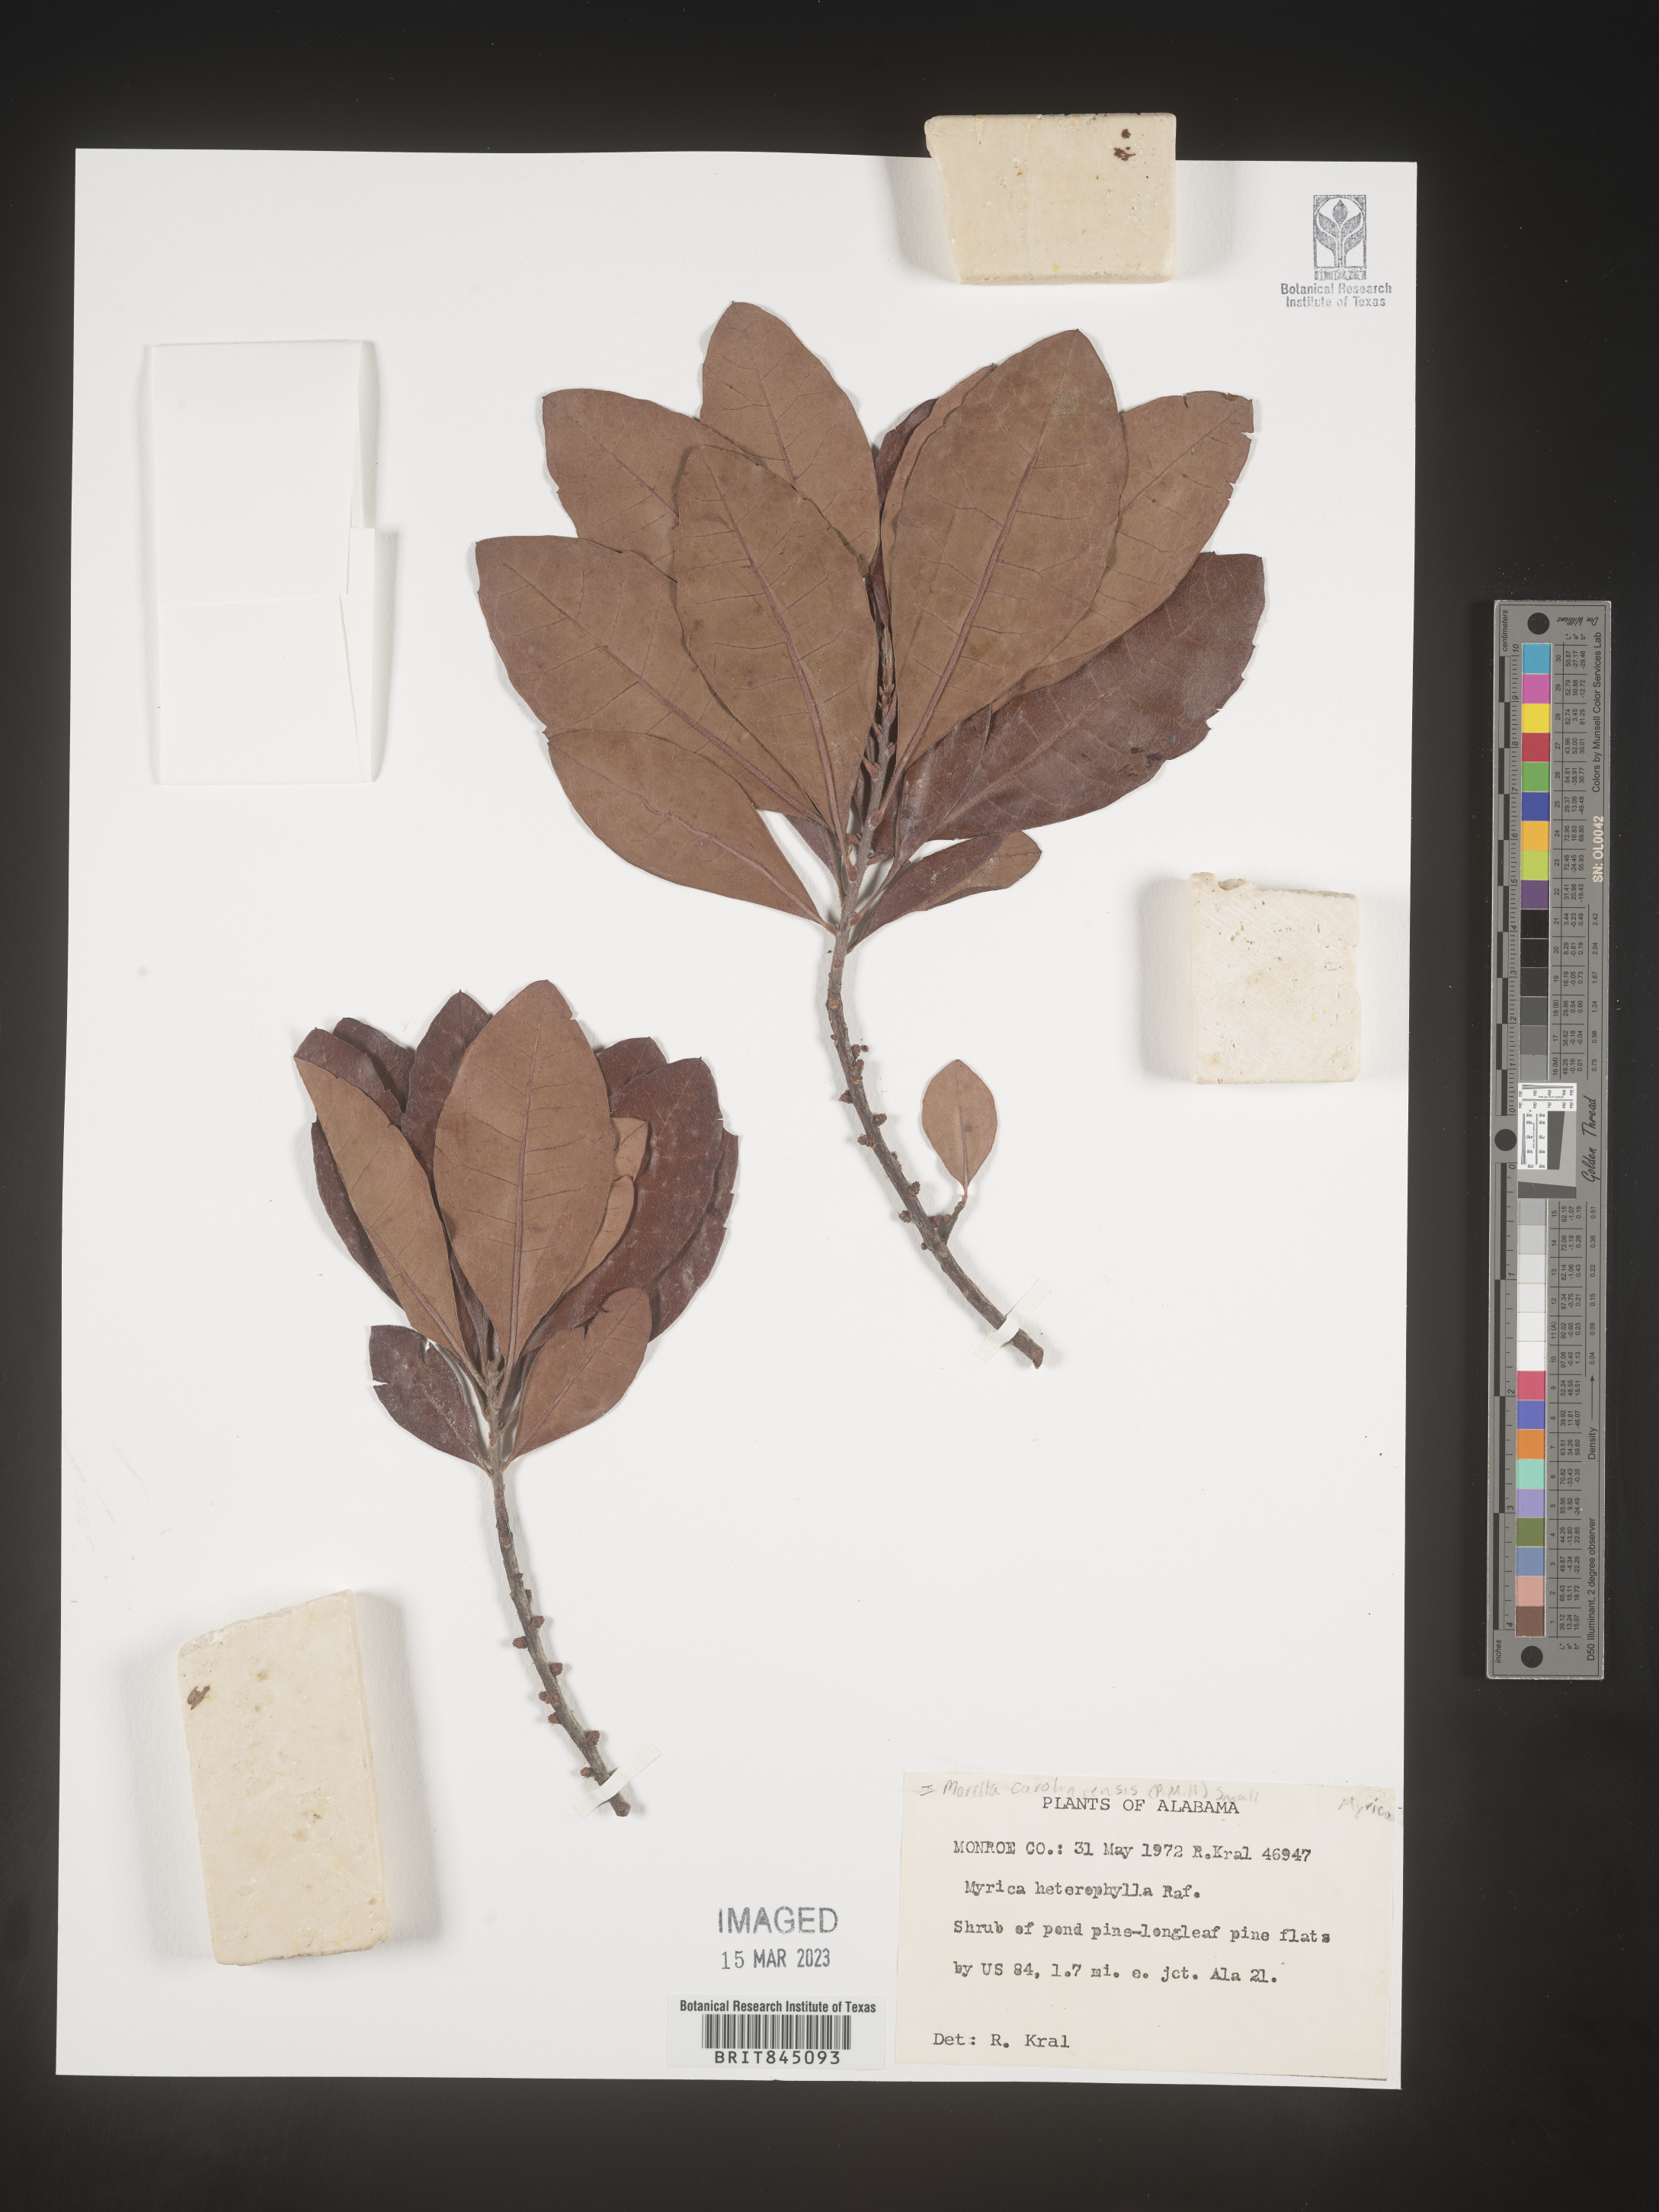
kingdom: Plantae
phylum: Tracheophyta
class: Magnoliopsida
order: Fagales
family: Myricaceae
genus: Morella
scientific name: Morella caroliniensis
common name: Evergreen bayberry
